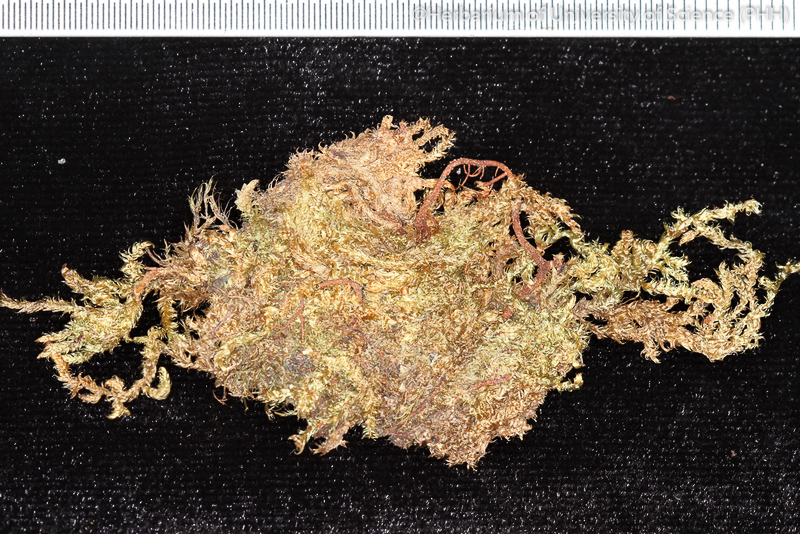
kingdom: Plantae
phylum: Bryophyta
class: Bryopsida
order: Hypnales
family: Pylaisiadelphaceae
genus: Wijkia
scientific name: Wijkia deflexifolia
